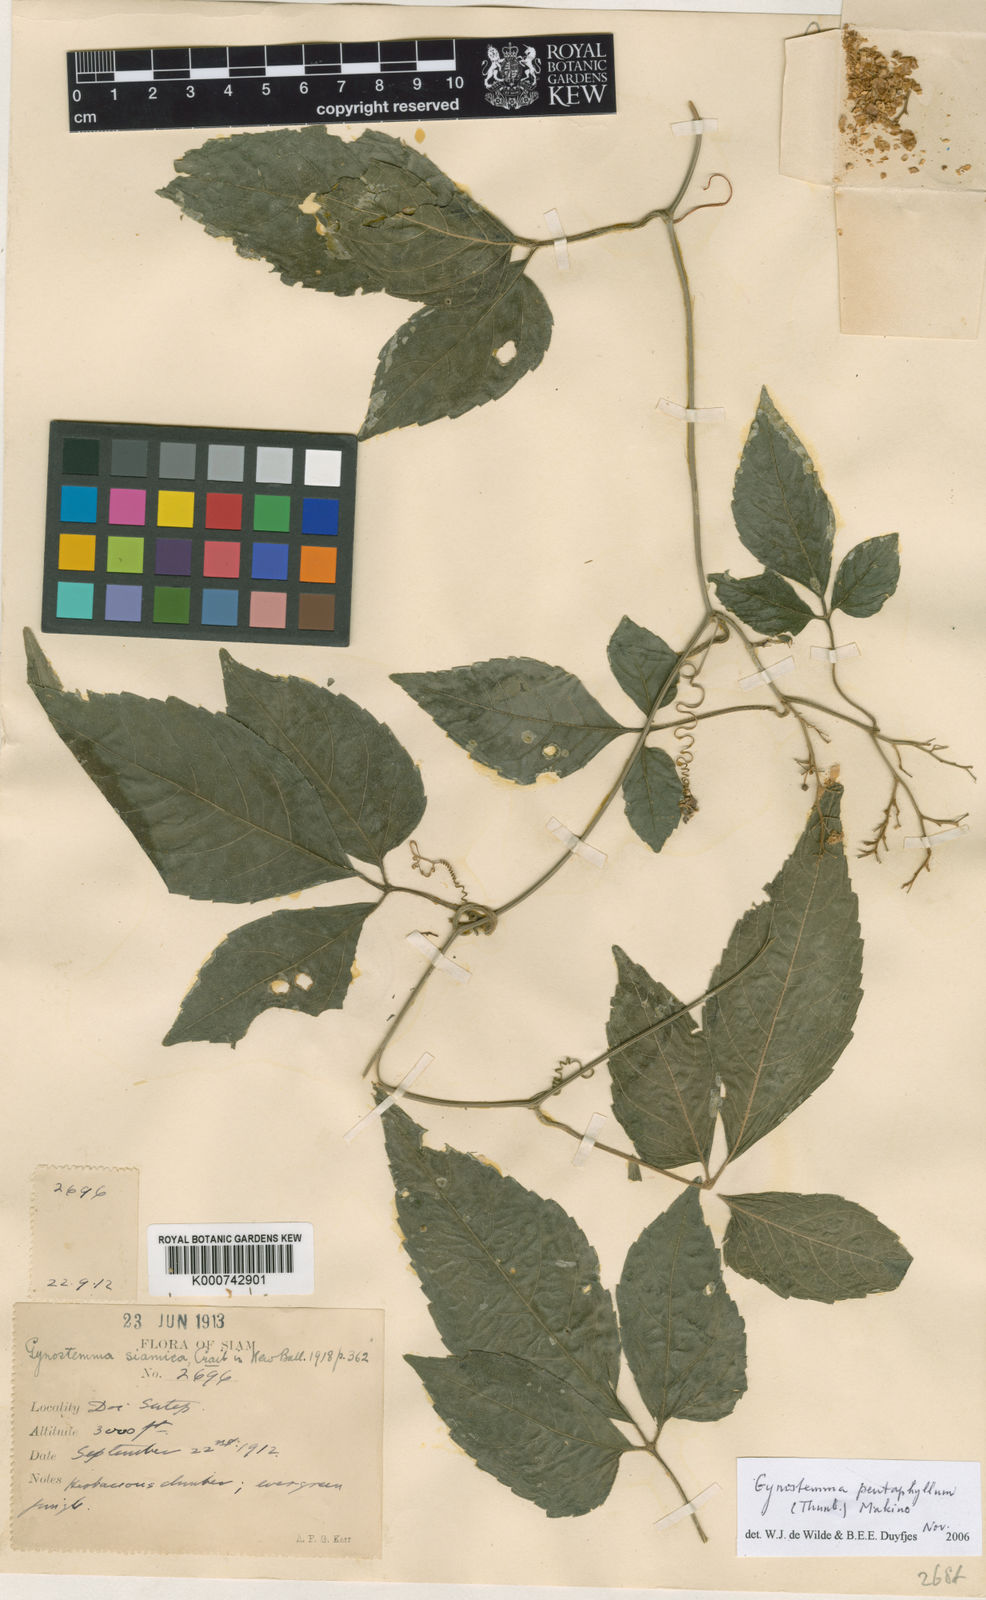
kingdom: Plantae
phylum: Tracheophyta
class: Magnoliopsida
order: Cucurbitales
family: Cucurbitaceae
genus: Gynostemma
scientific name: Gynostemma pentaphyllum
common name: Gynostemma
